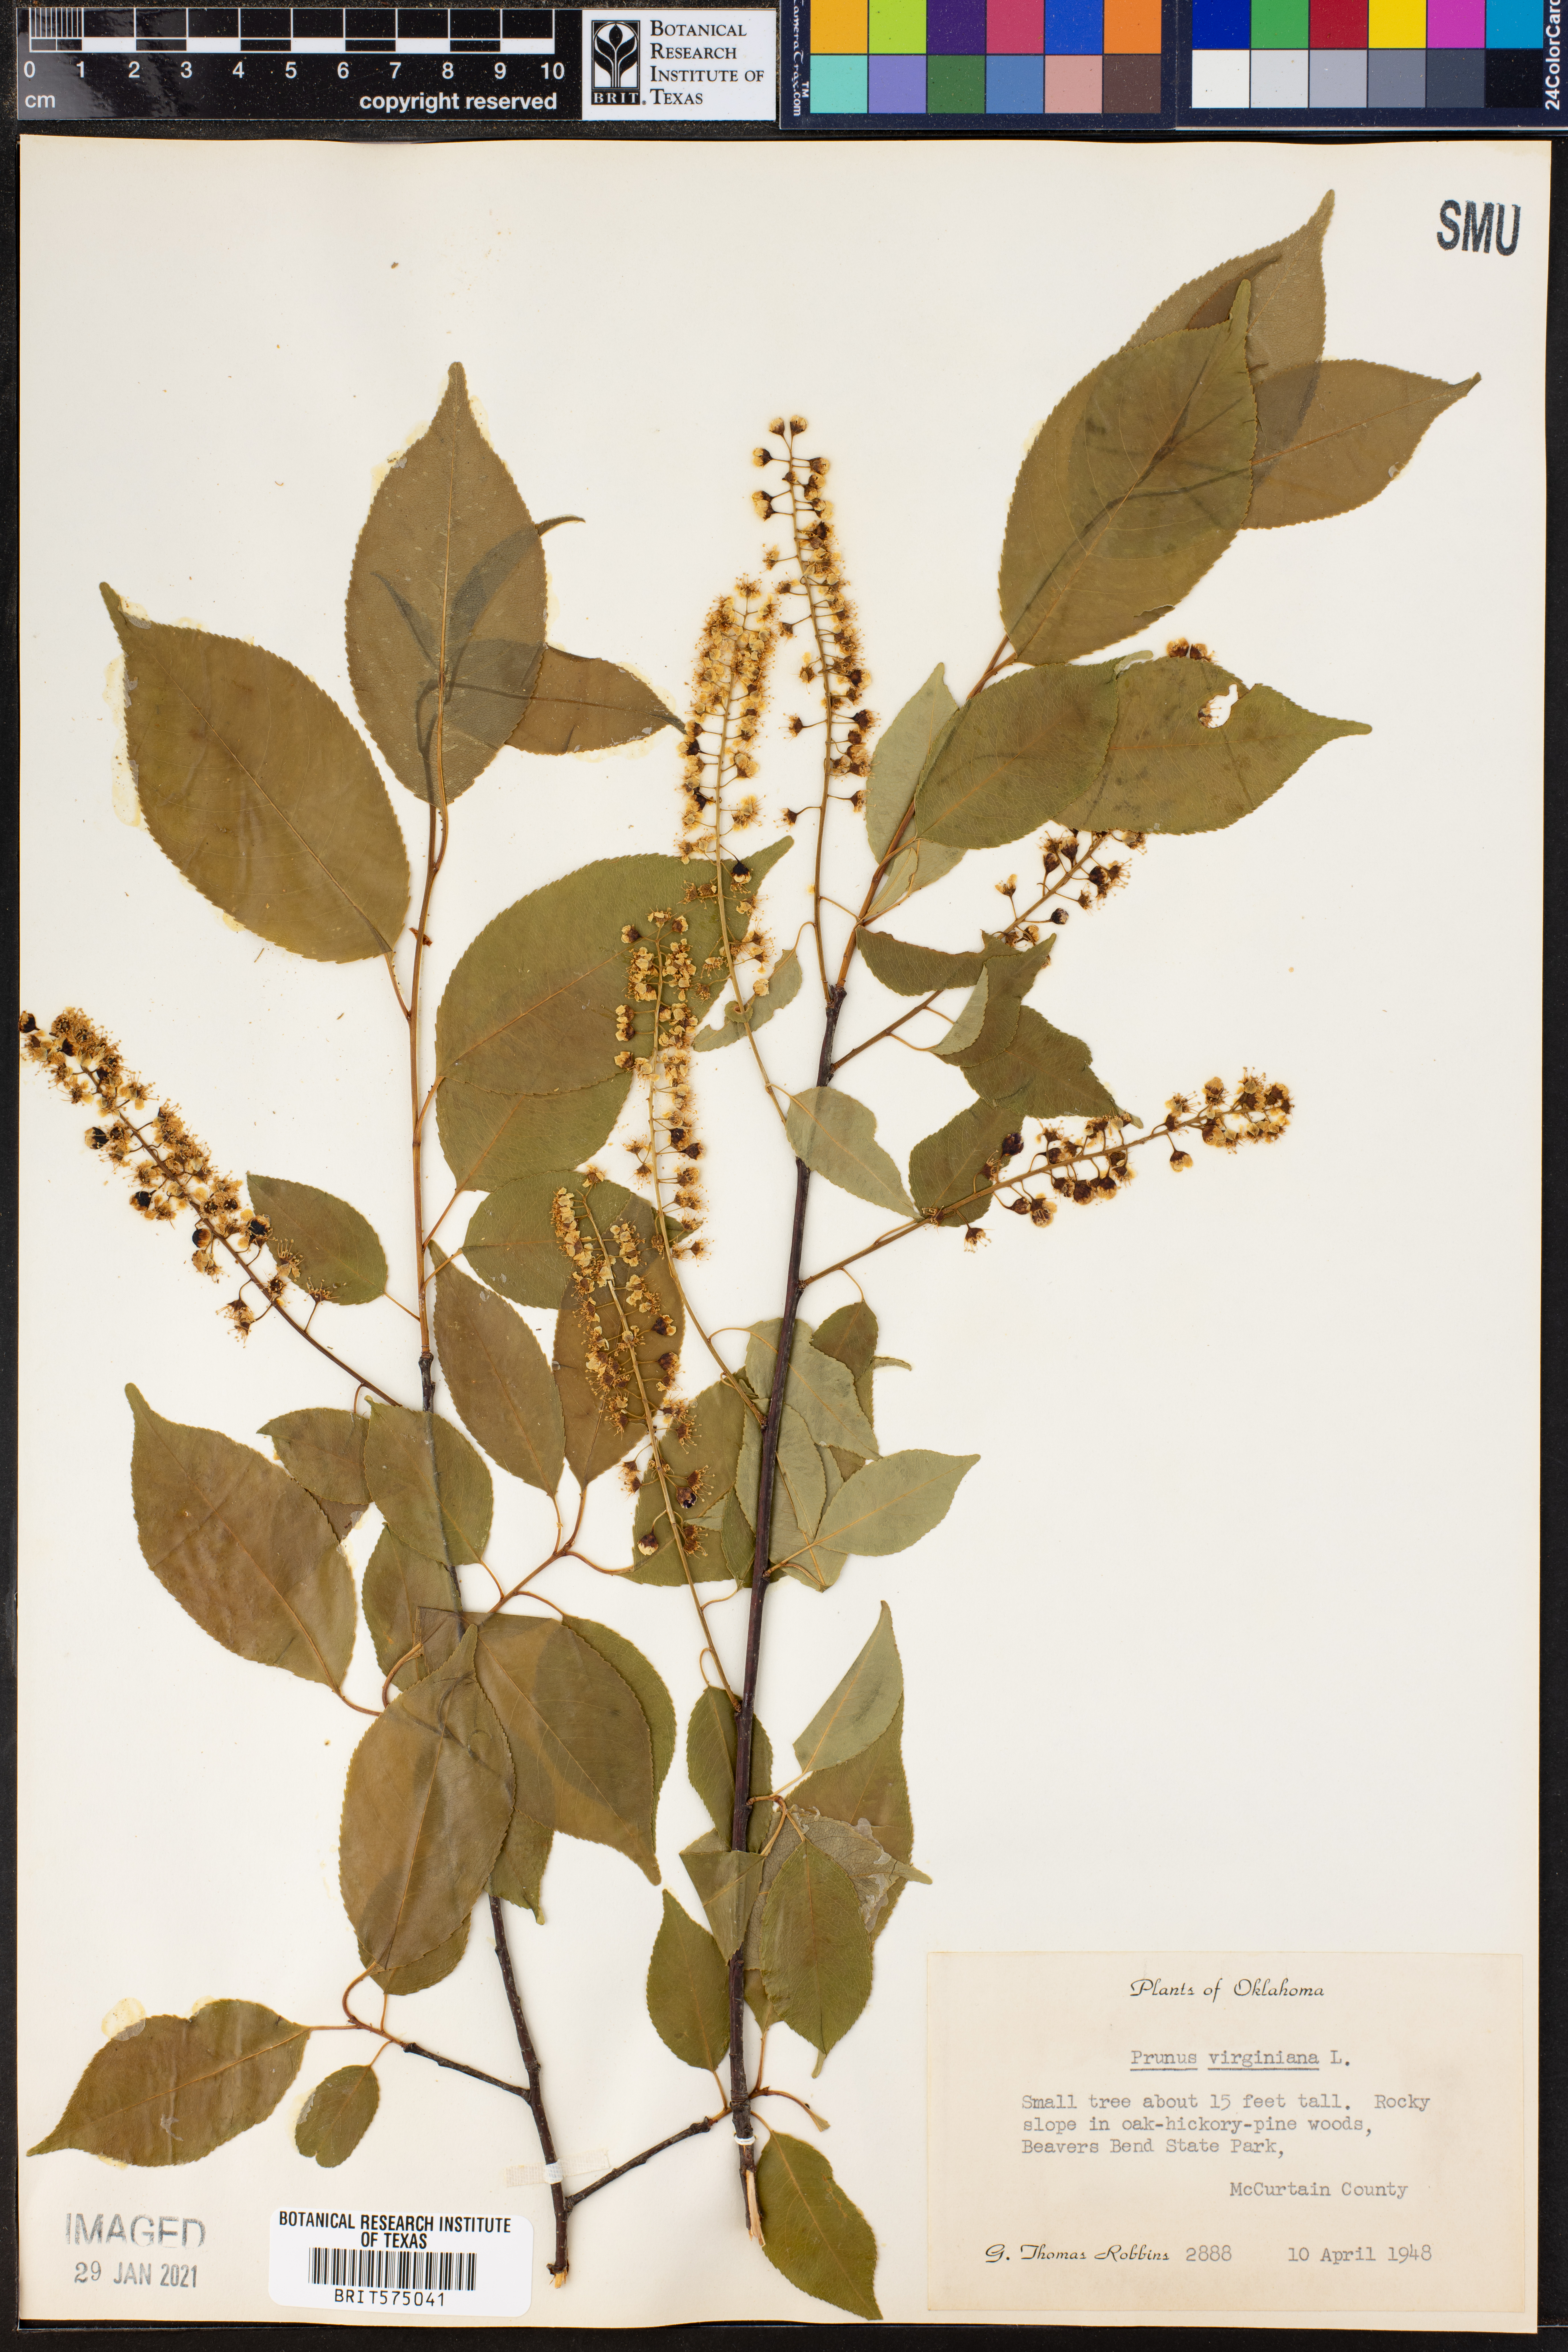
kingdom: Plantae
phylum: Tracheophyta
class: Magnoliopsida
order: Rosales
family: Rosaceae
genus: Prunus
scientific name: Prunus virginiana
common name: Chokecherry
